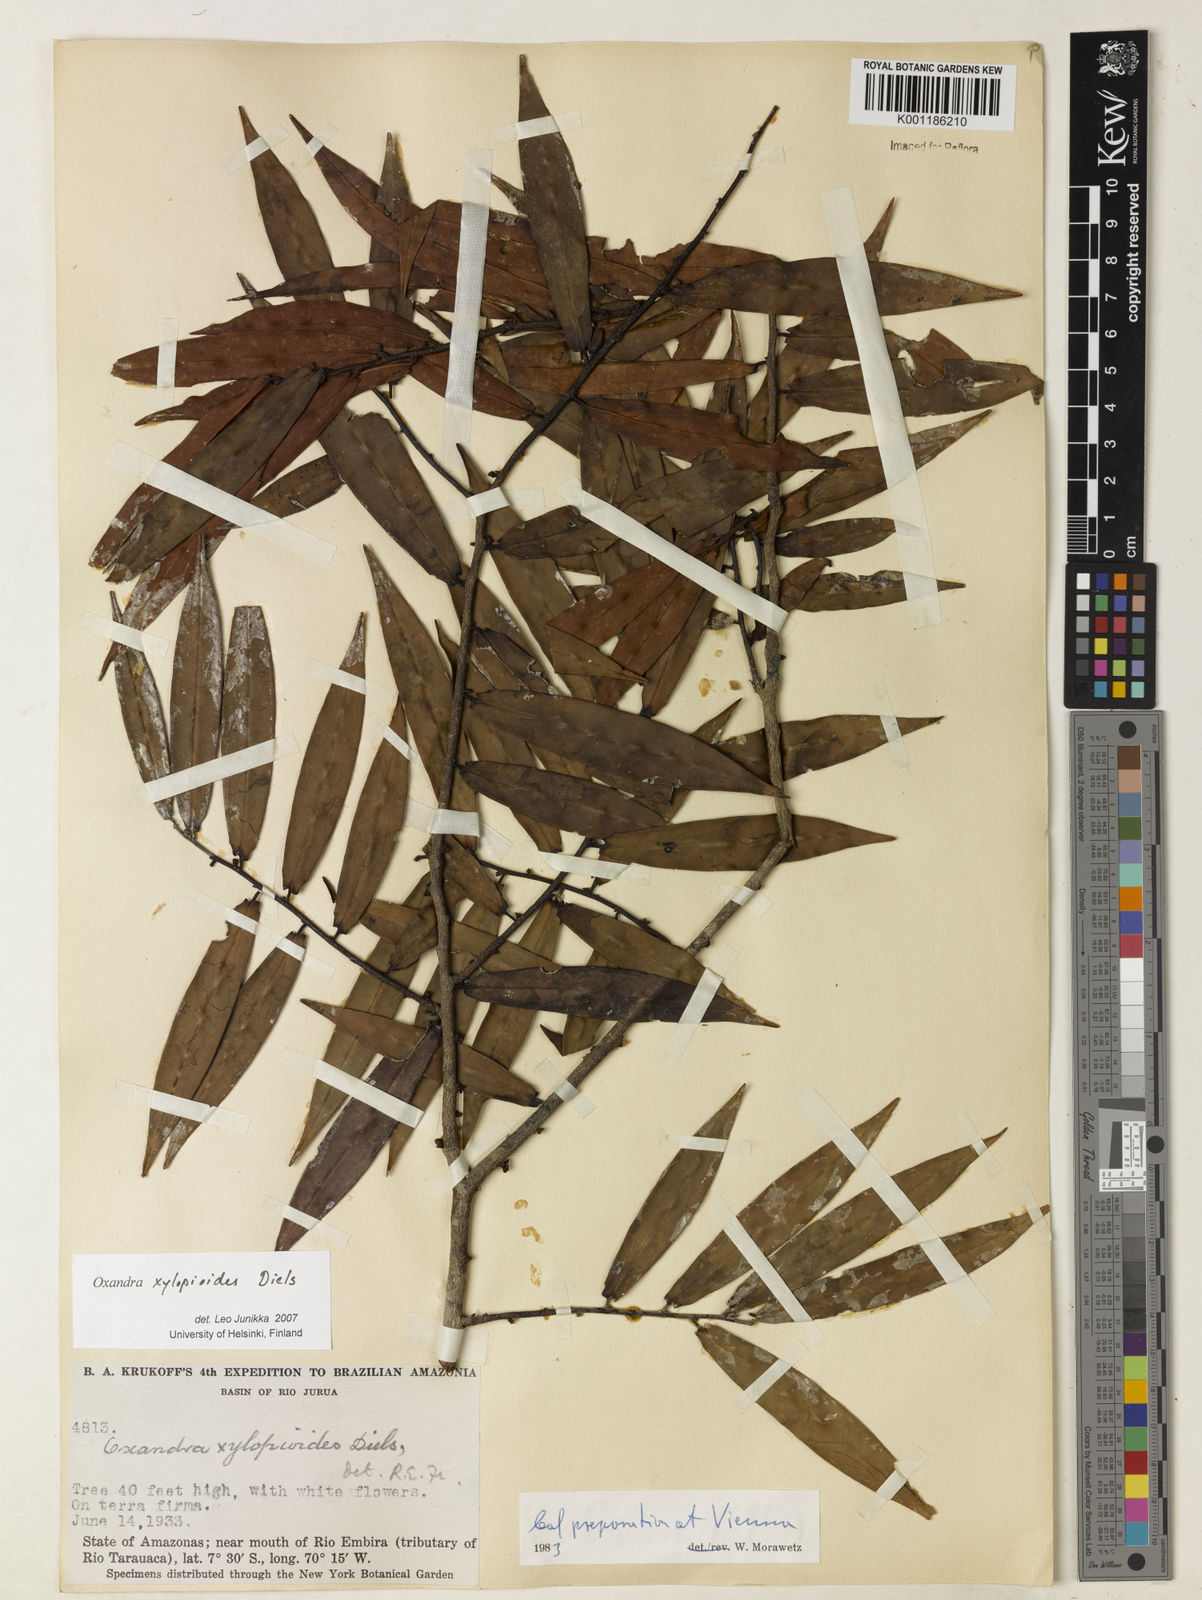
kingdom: Plantae
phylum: Tracheophyta
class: Magnoliopsida
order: Magnoliales
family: Annonaceae
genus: Oxandra
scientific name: Oxandra xylopioides
